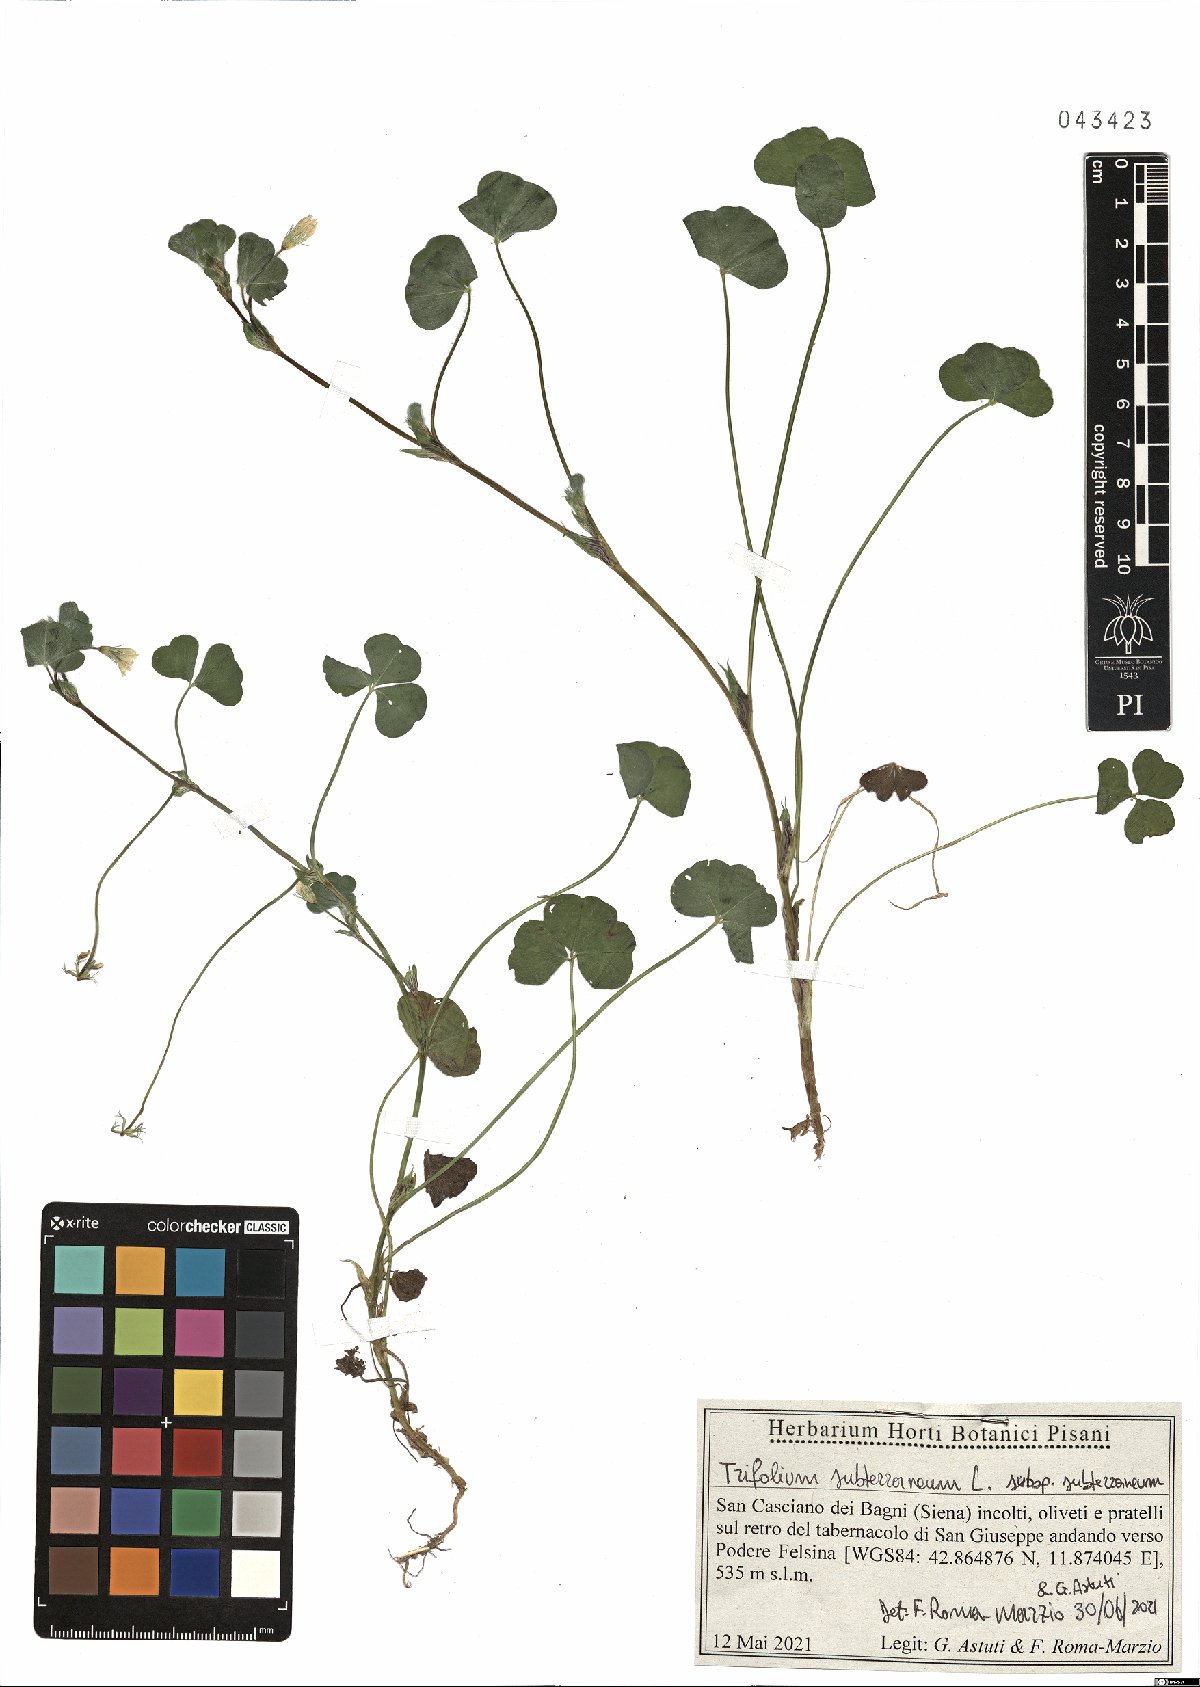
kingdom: Plantae
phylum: Tracheophyta
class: Magnoliopsida
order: Fabales
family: Fabaceae
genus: Trifolium
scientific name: Trifolium subterraneum
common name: Subterranean clover
